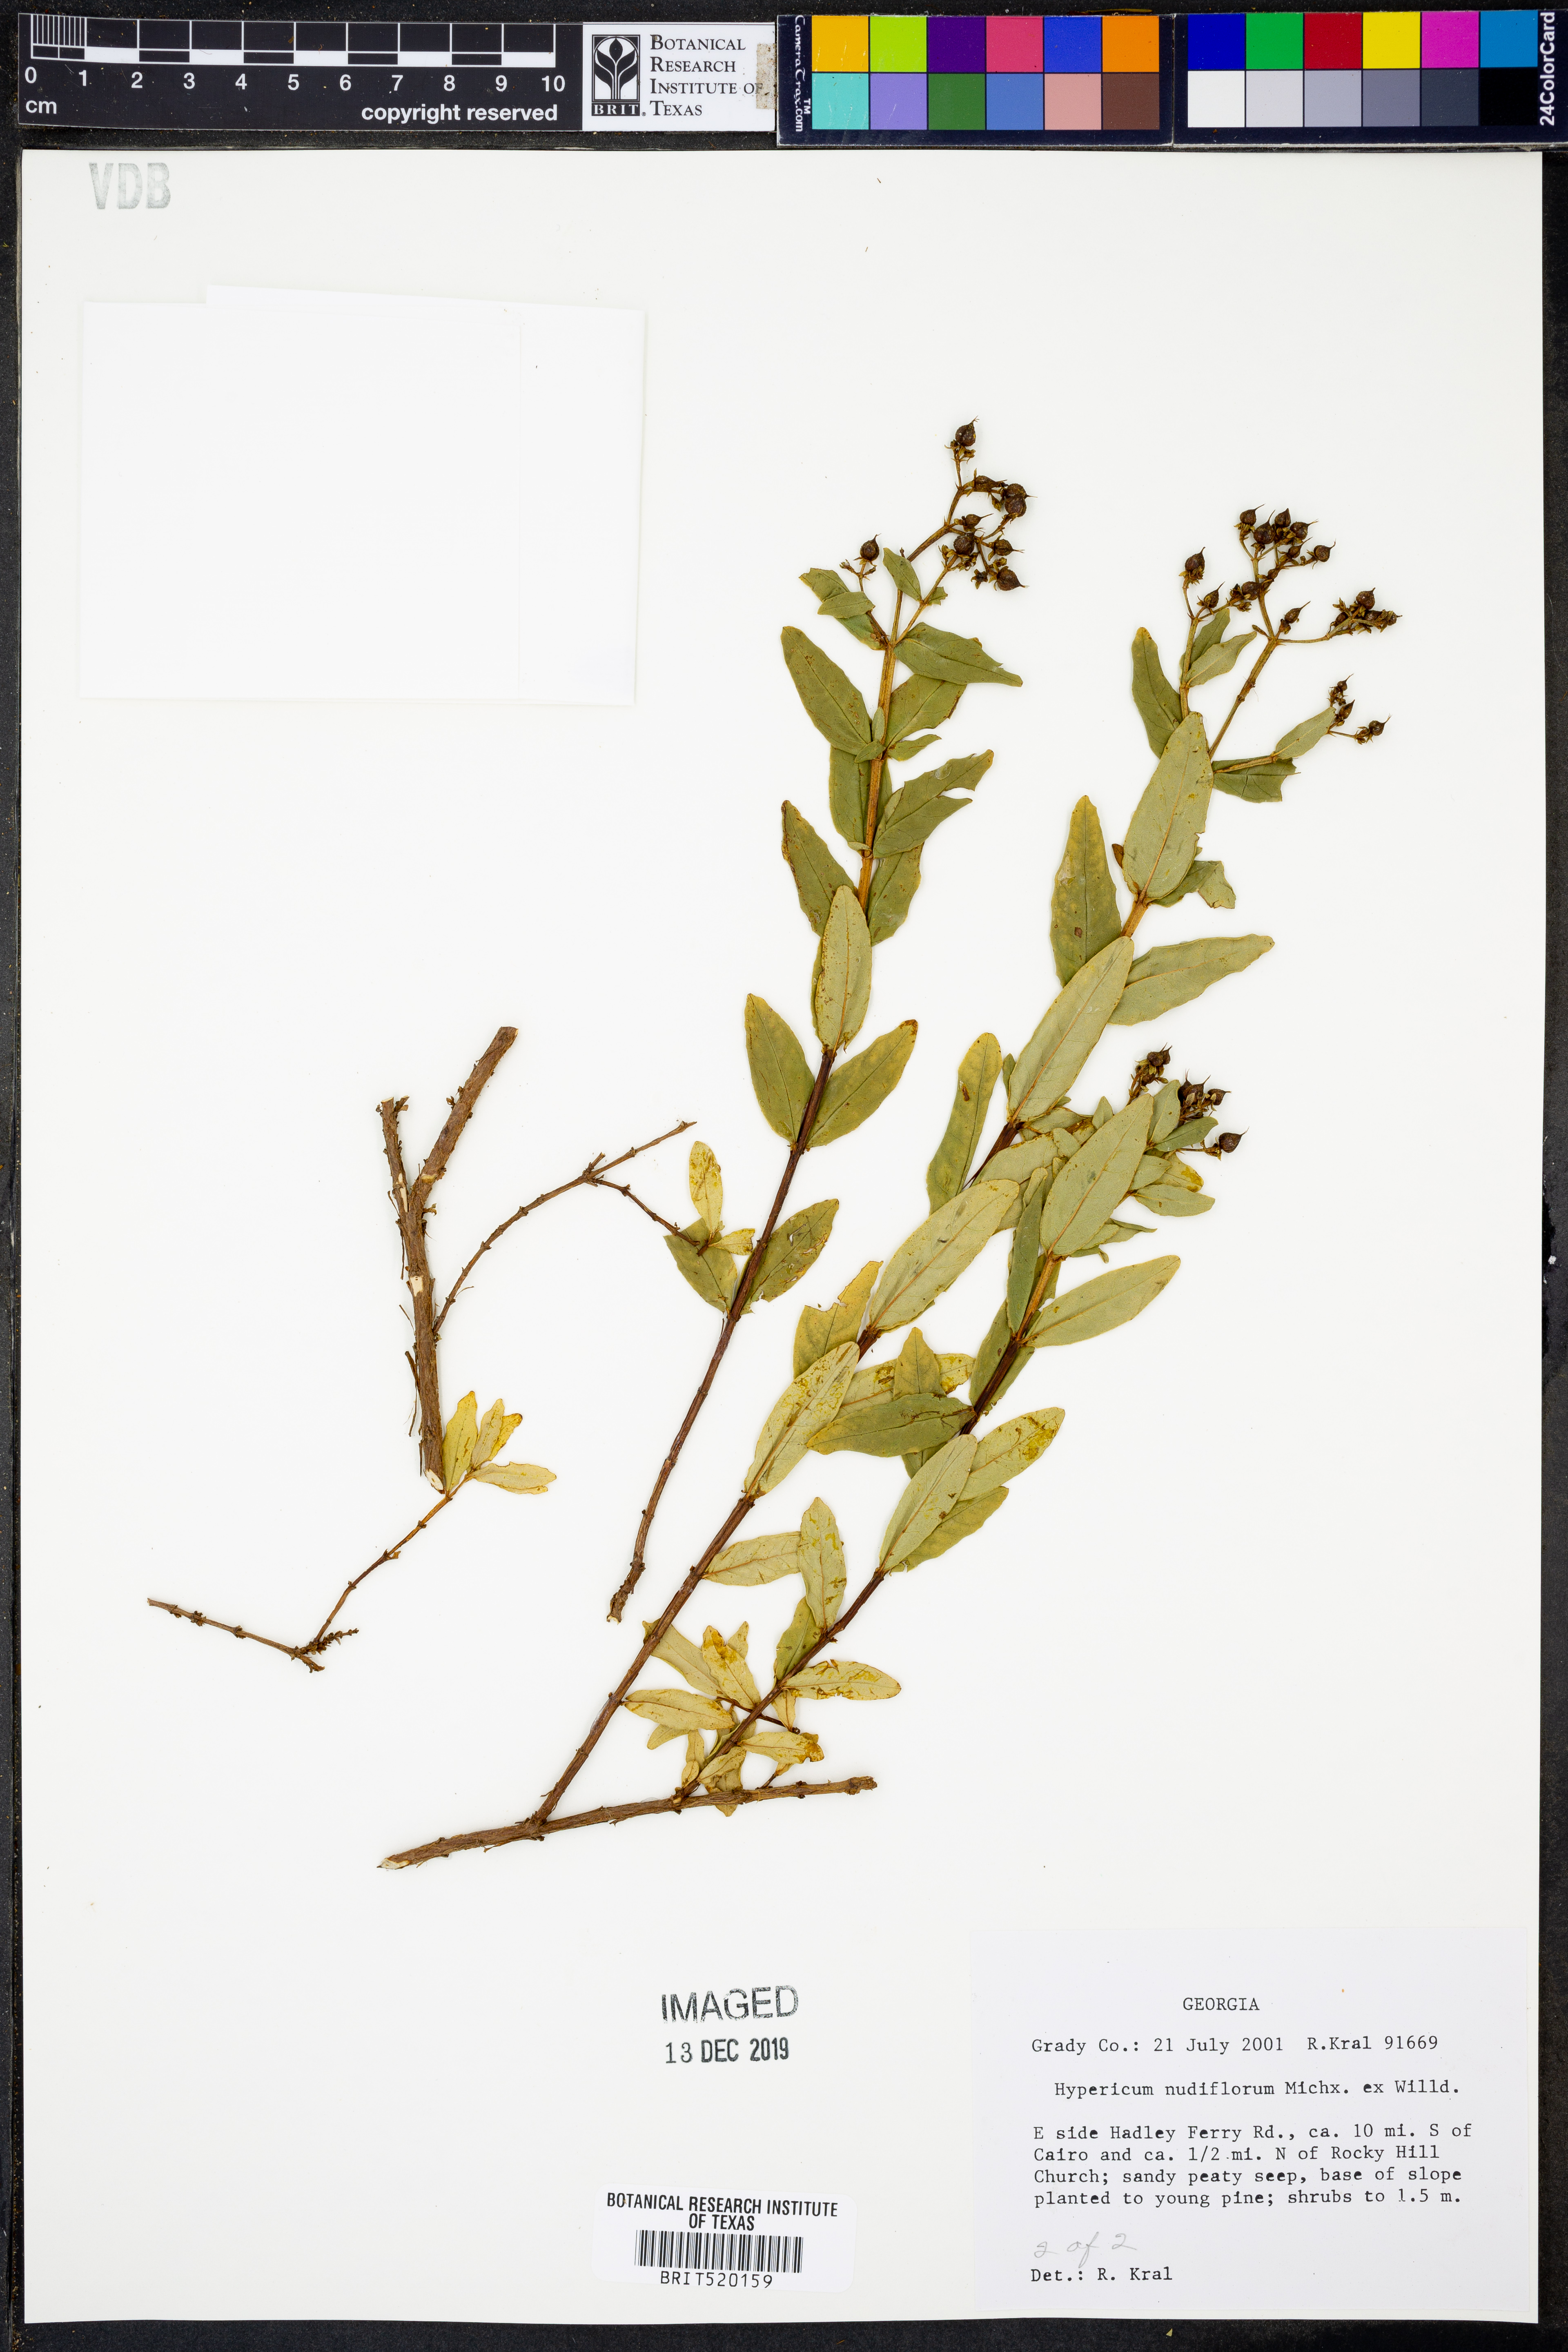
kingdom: Plantae
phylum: Tracheophyta
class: Magnoliopsida
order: Malpighiales
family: Hypericaceae
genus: Hypericum
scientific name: Hypericum nudiflorum
